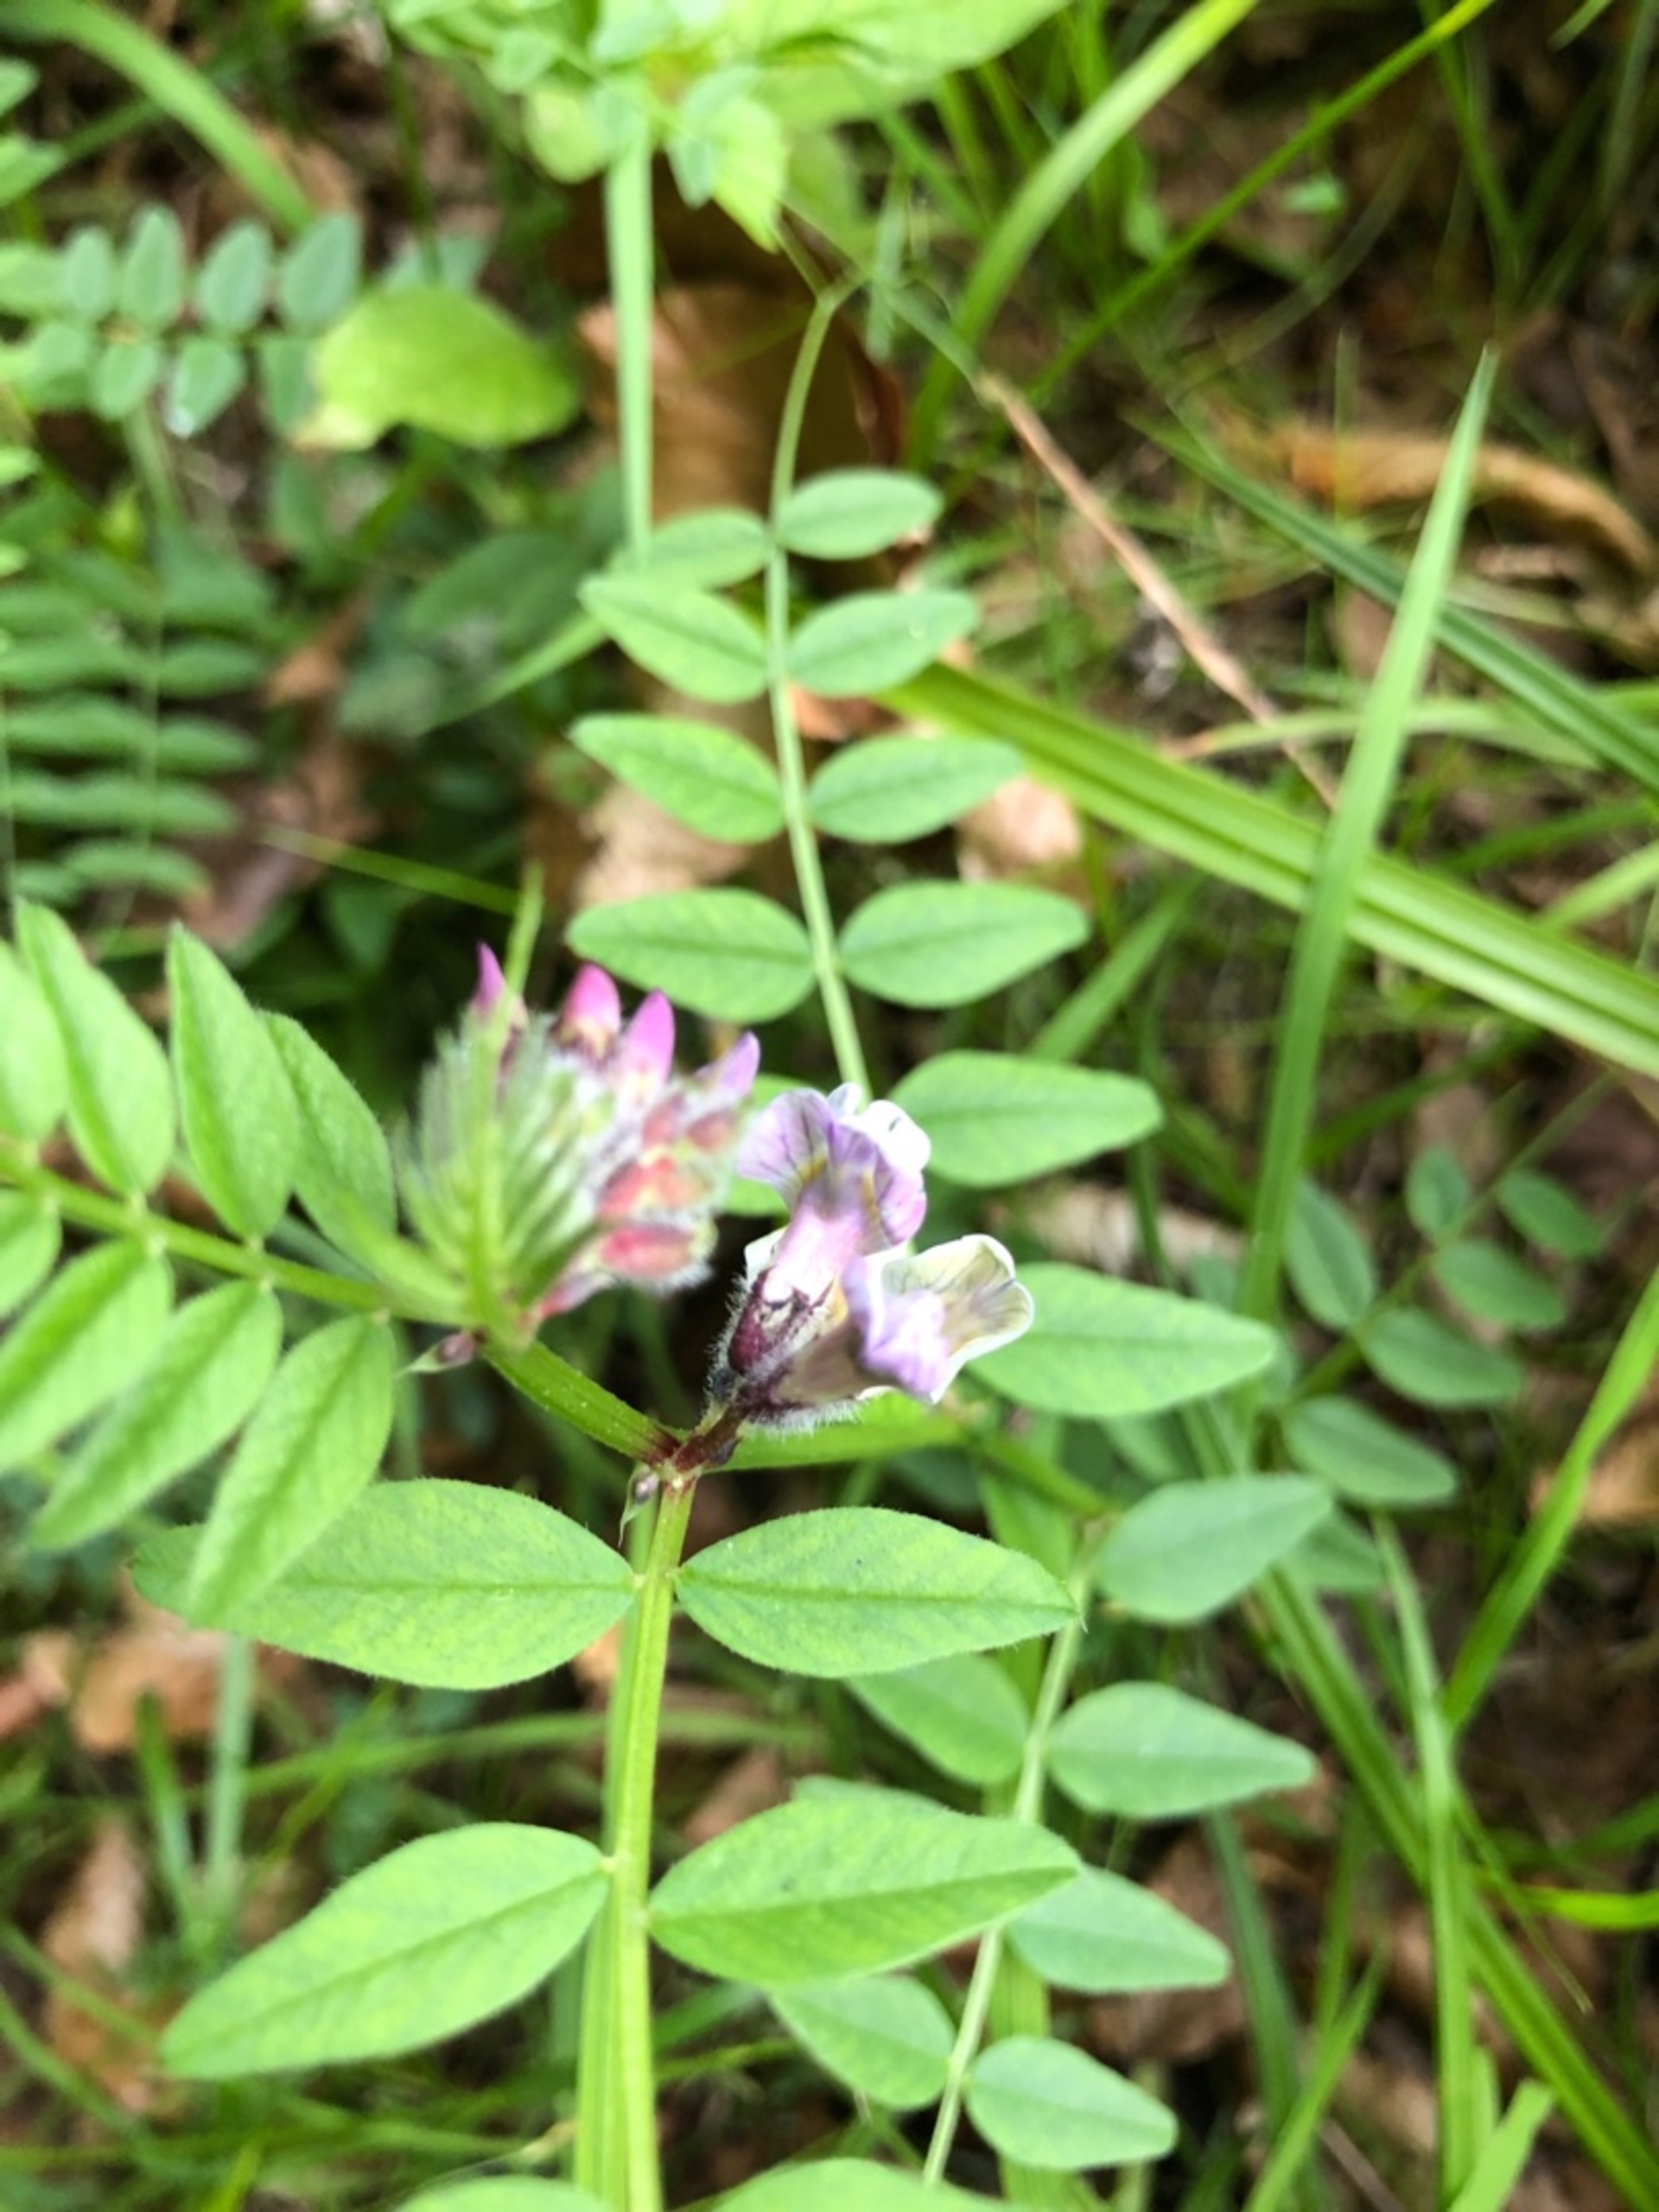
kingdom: Plantae
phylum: Tracheophyta
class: Magnoliopsida
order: Fabales
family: Fabaceae
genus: Vicia
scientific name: Vicia sepium
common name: Gærde-vikke
